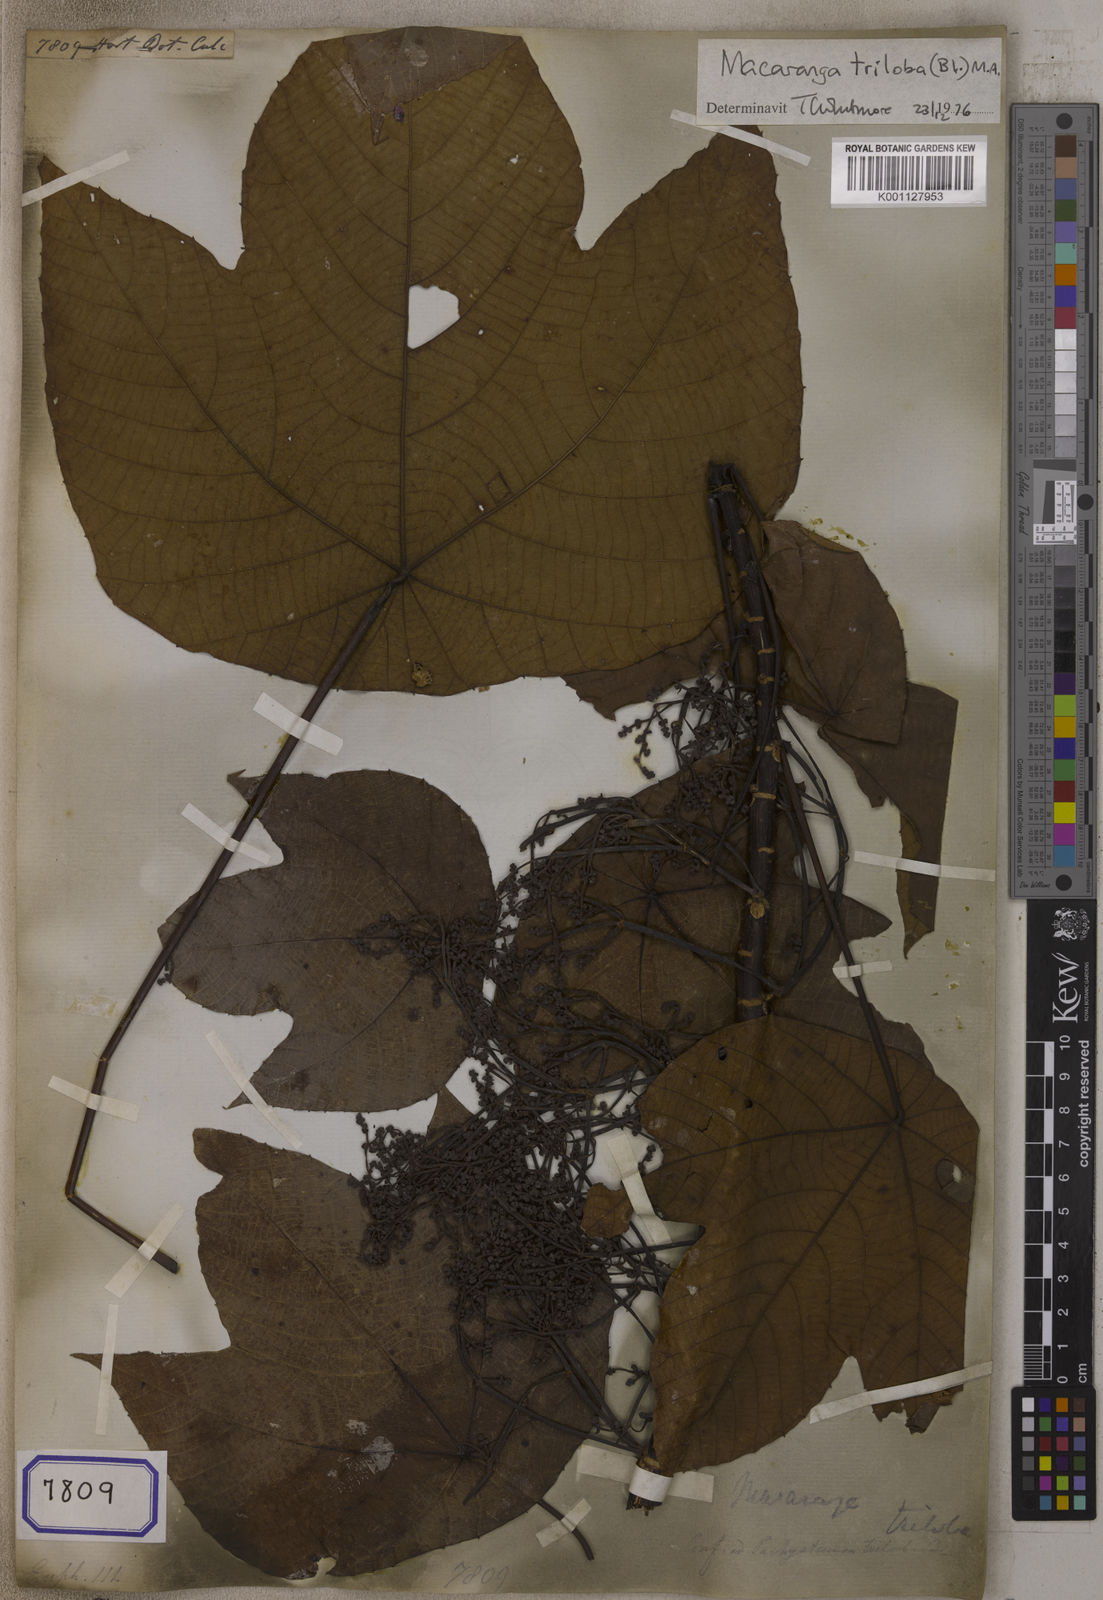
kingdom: Plantae
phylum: Tracheophyta
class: Magnoliopsida
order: Malpighiales
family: Euphorbiaceae
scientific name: Euphorbiaceae
